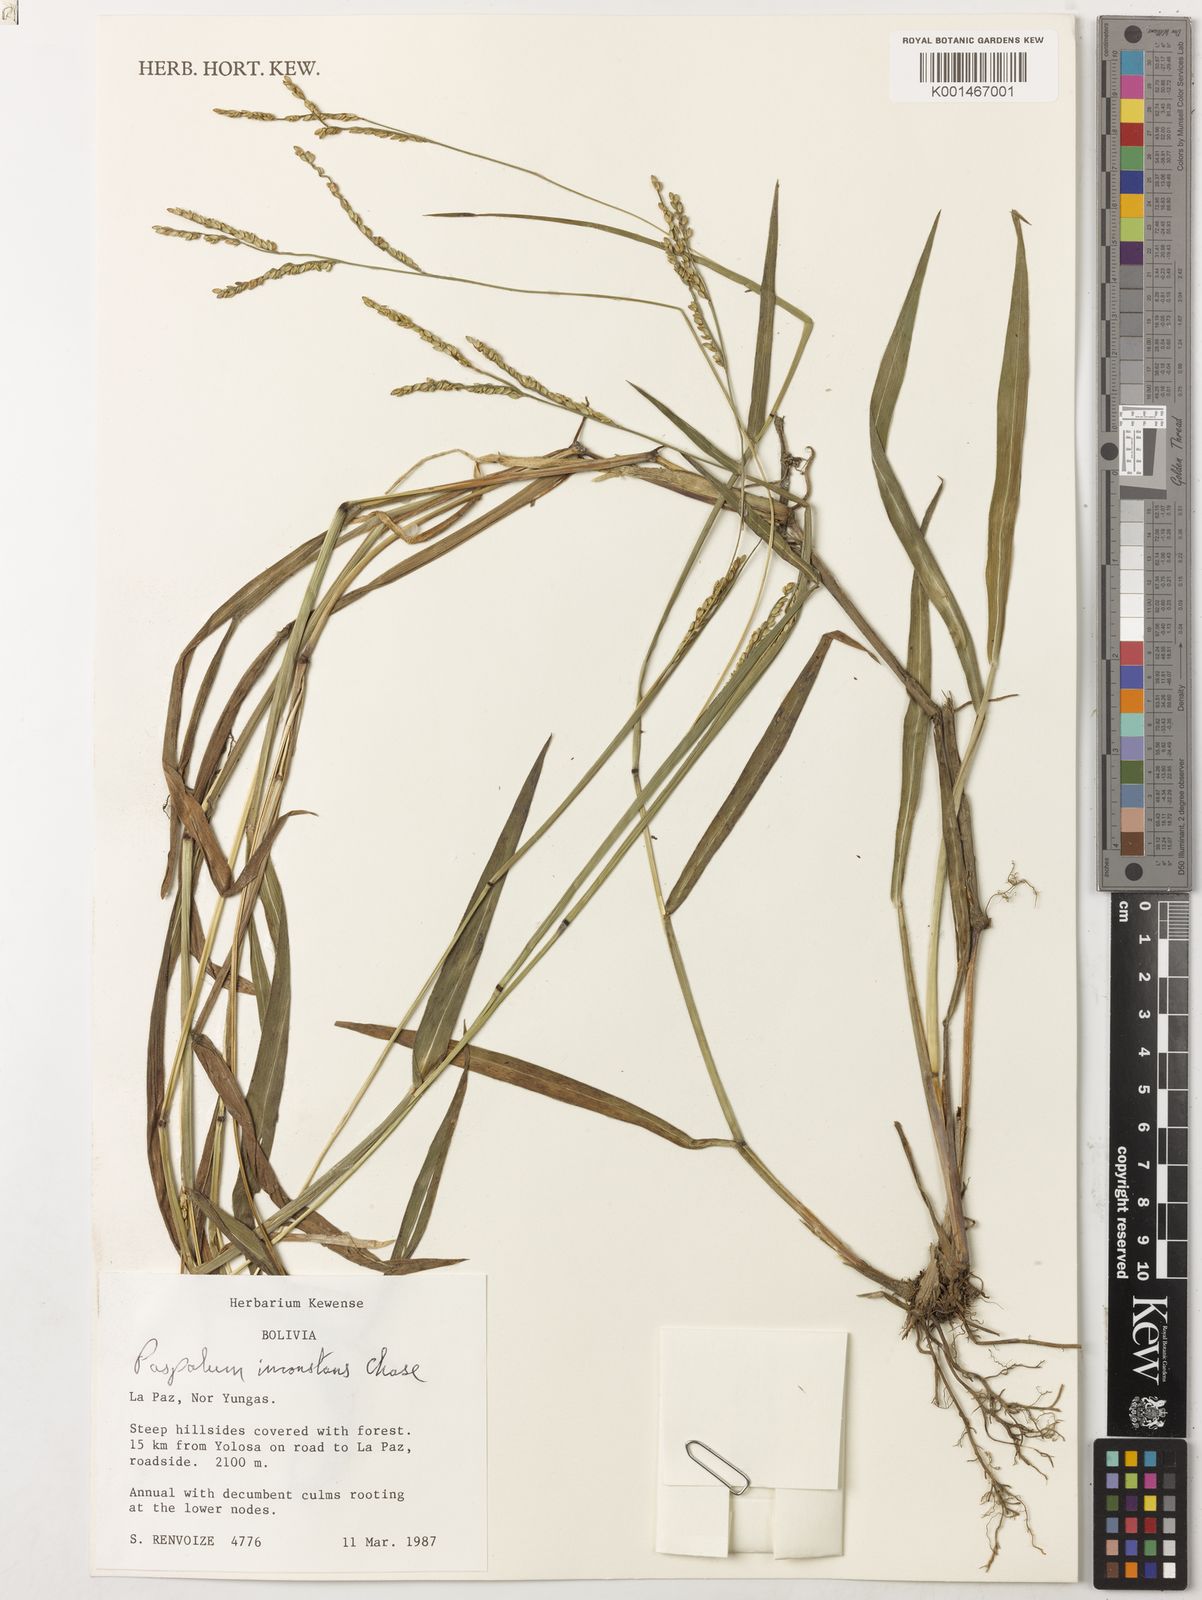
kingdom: Plantae
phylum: Tracheophyta
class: Liliopsida
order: Poales
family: Poaceae
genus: Paspalum
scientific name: Paspalum inconstans
